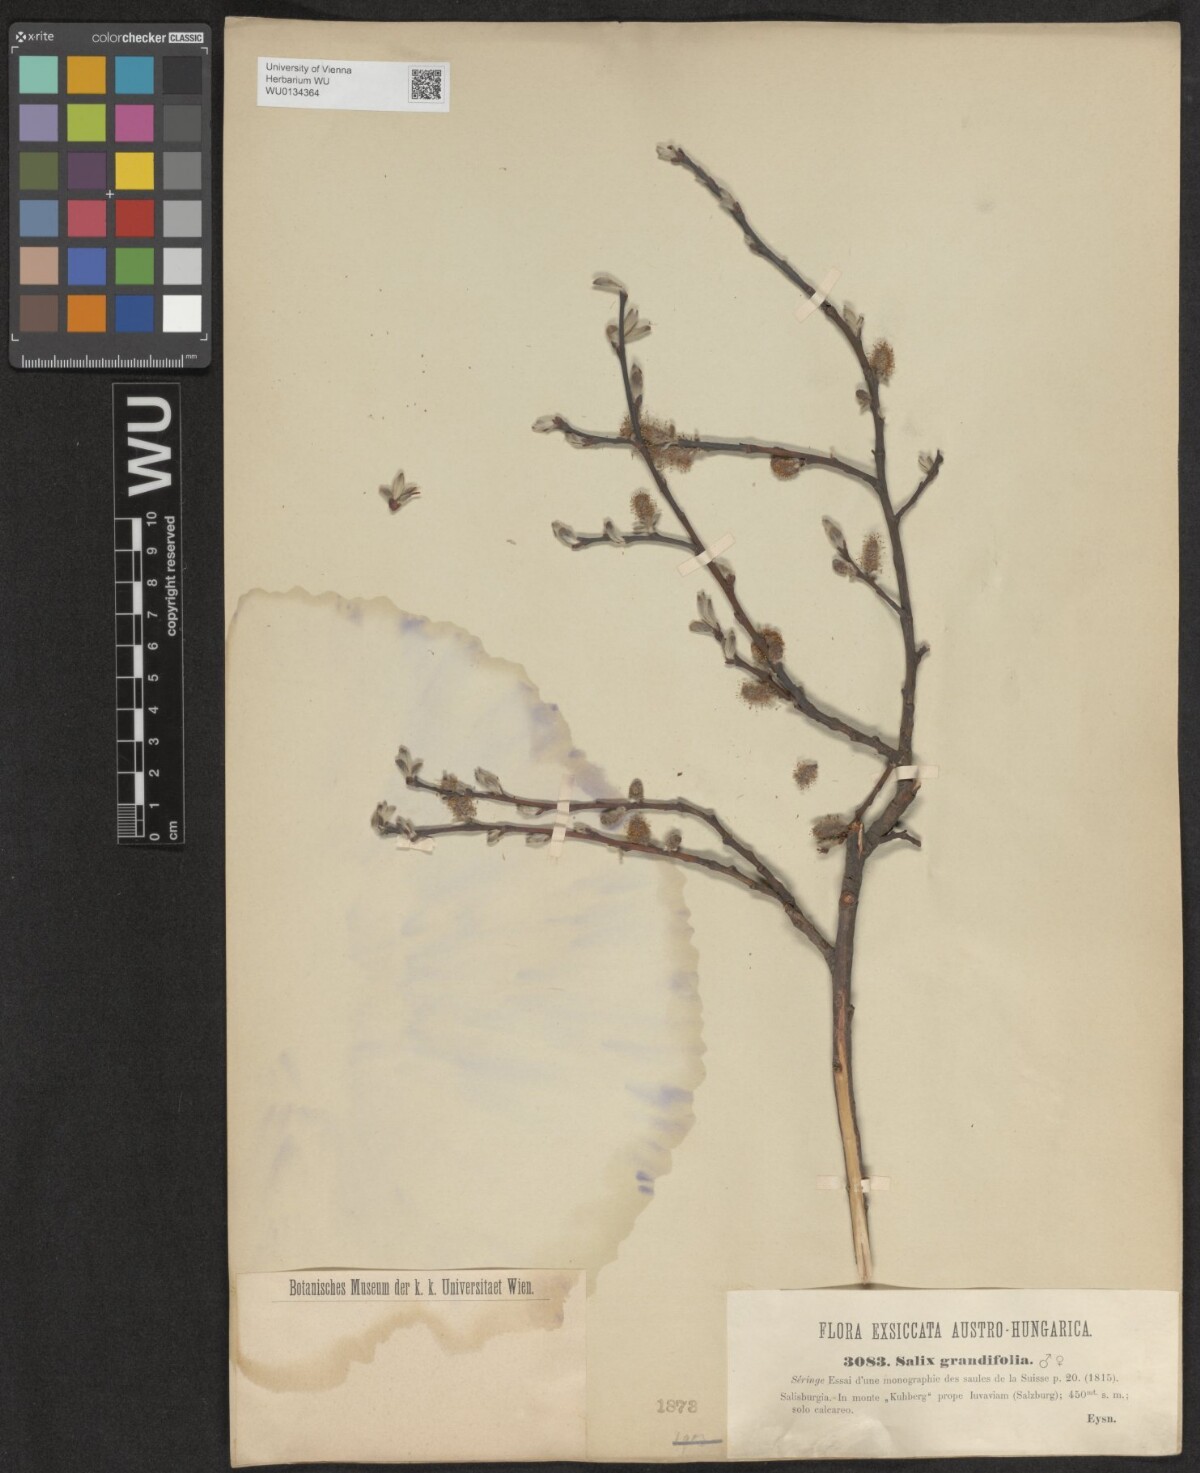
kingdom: Plantae
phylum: Tracheophyta
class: Magnoliopsida
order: Malpighiales
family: Salicaceae
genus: Salix
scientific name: Salix appendiculata
